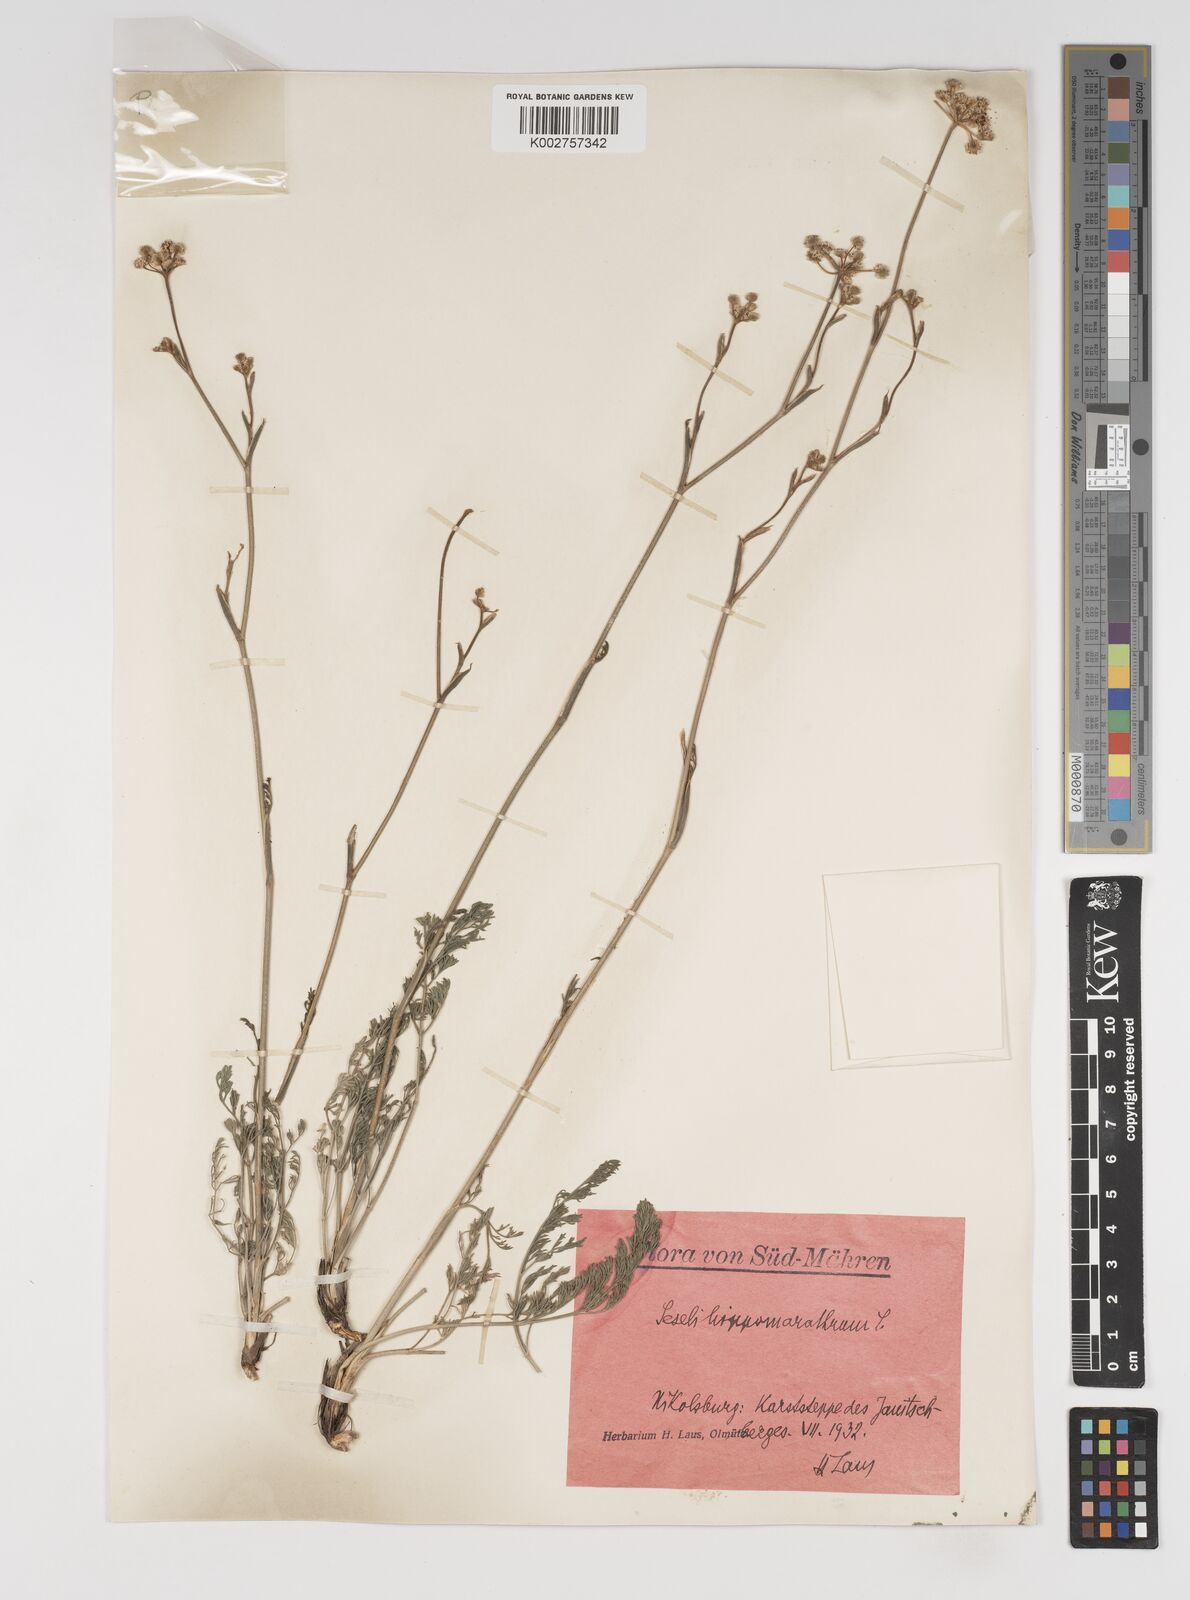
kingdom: Plantae
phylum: Tracheophyta
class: Magnoliopsida
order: Apiales
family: Apiaceae
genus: Seseli
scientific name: Seseli
